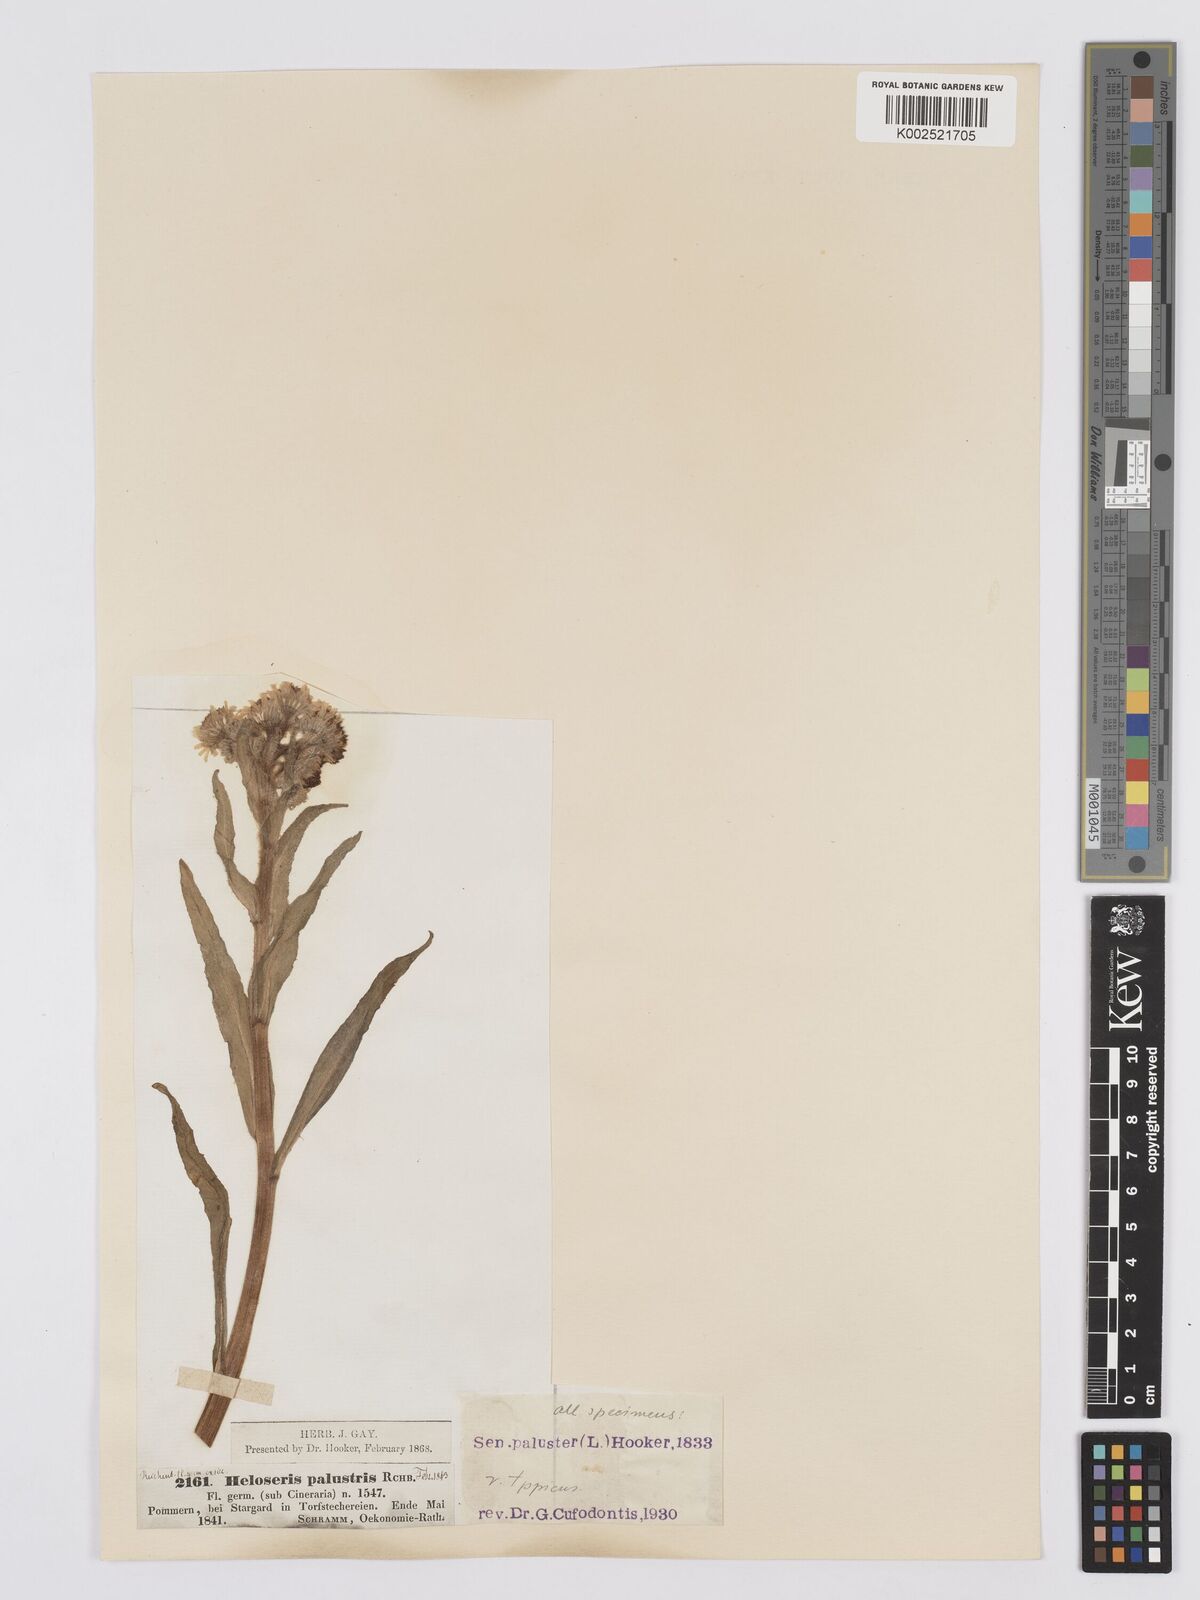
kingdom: Plantae
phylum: Tracheophyta
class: Magnoliopsida
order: Asterales
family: Asteraceae
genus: Tephroseris
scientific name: Tephroseris palustris
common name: Marsh fleawort
